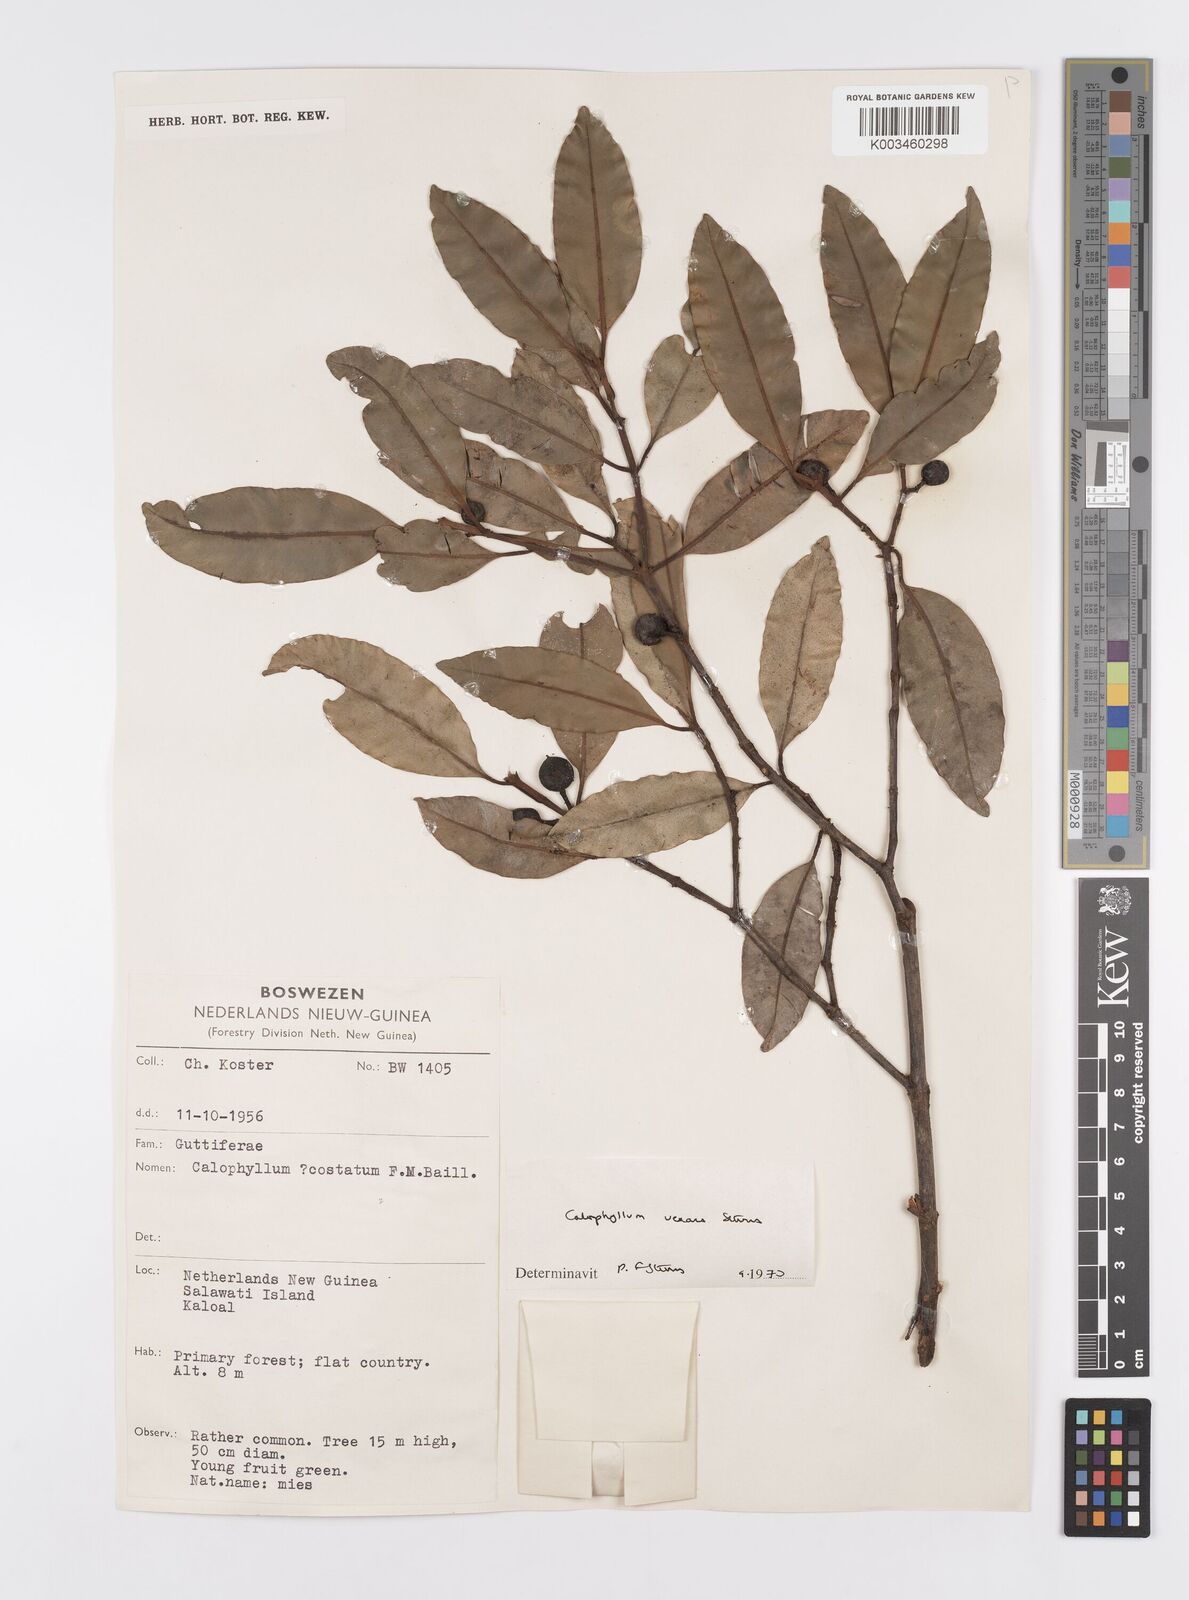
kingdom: Plantae
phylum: Tracheophyta
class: Magnoliopsida
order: Malpighiales
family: Calophyllaceae
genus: Calophyllum
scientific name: Calophyllum vexans
